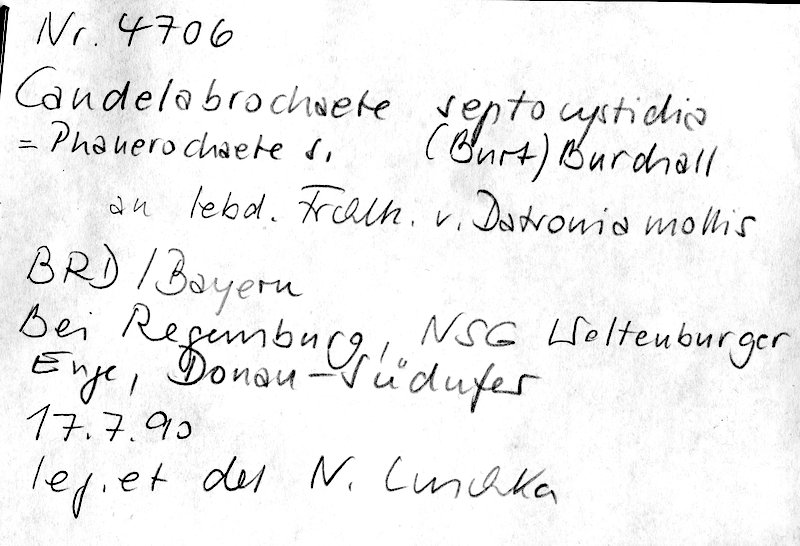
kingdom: Fungi
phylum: Basidiomycota
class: Agaricomycetes
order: Polyporales
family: Polyporaceae
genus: Podofomes
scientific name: Podofomes mollis
